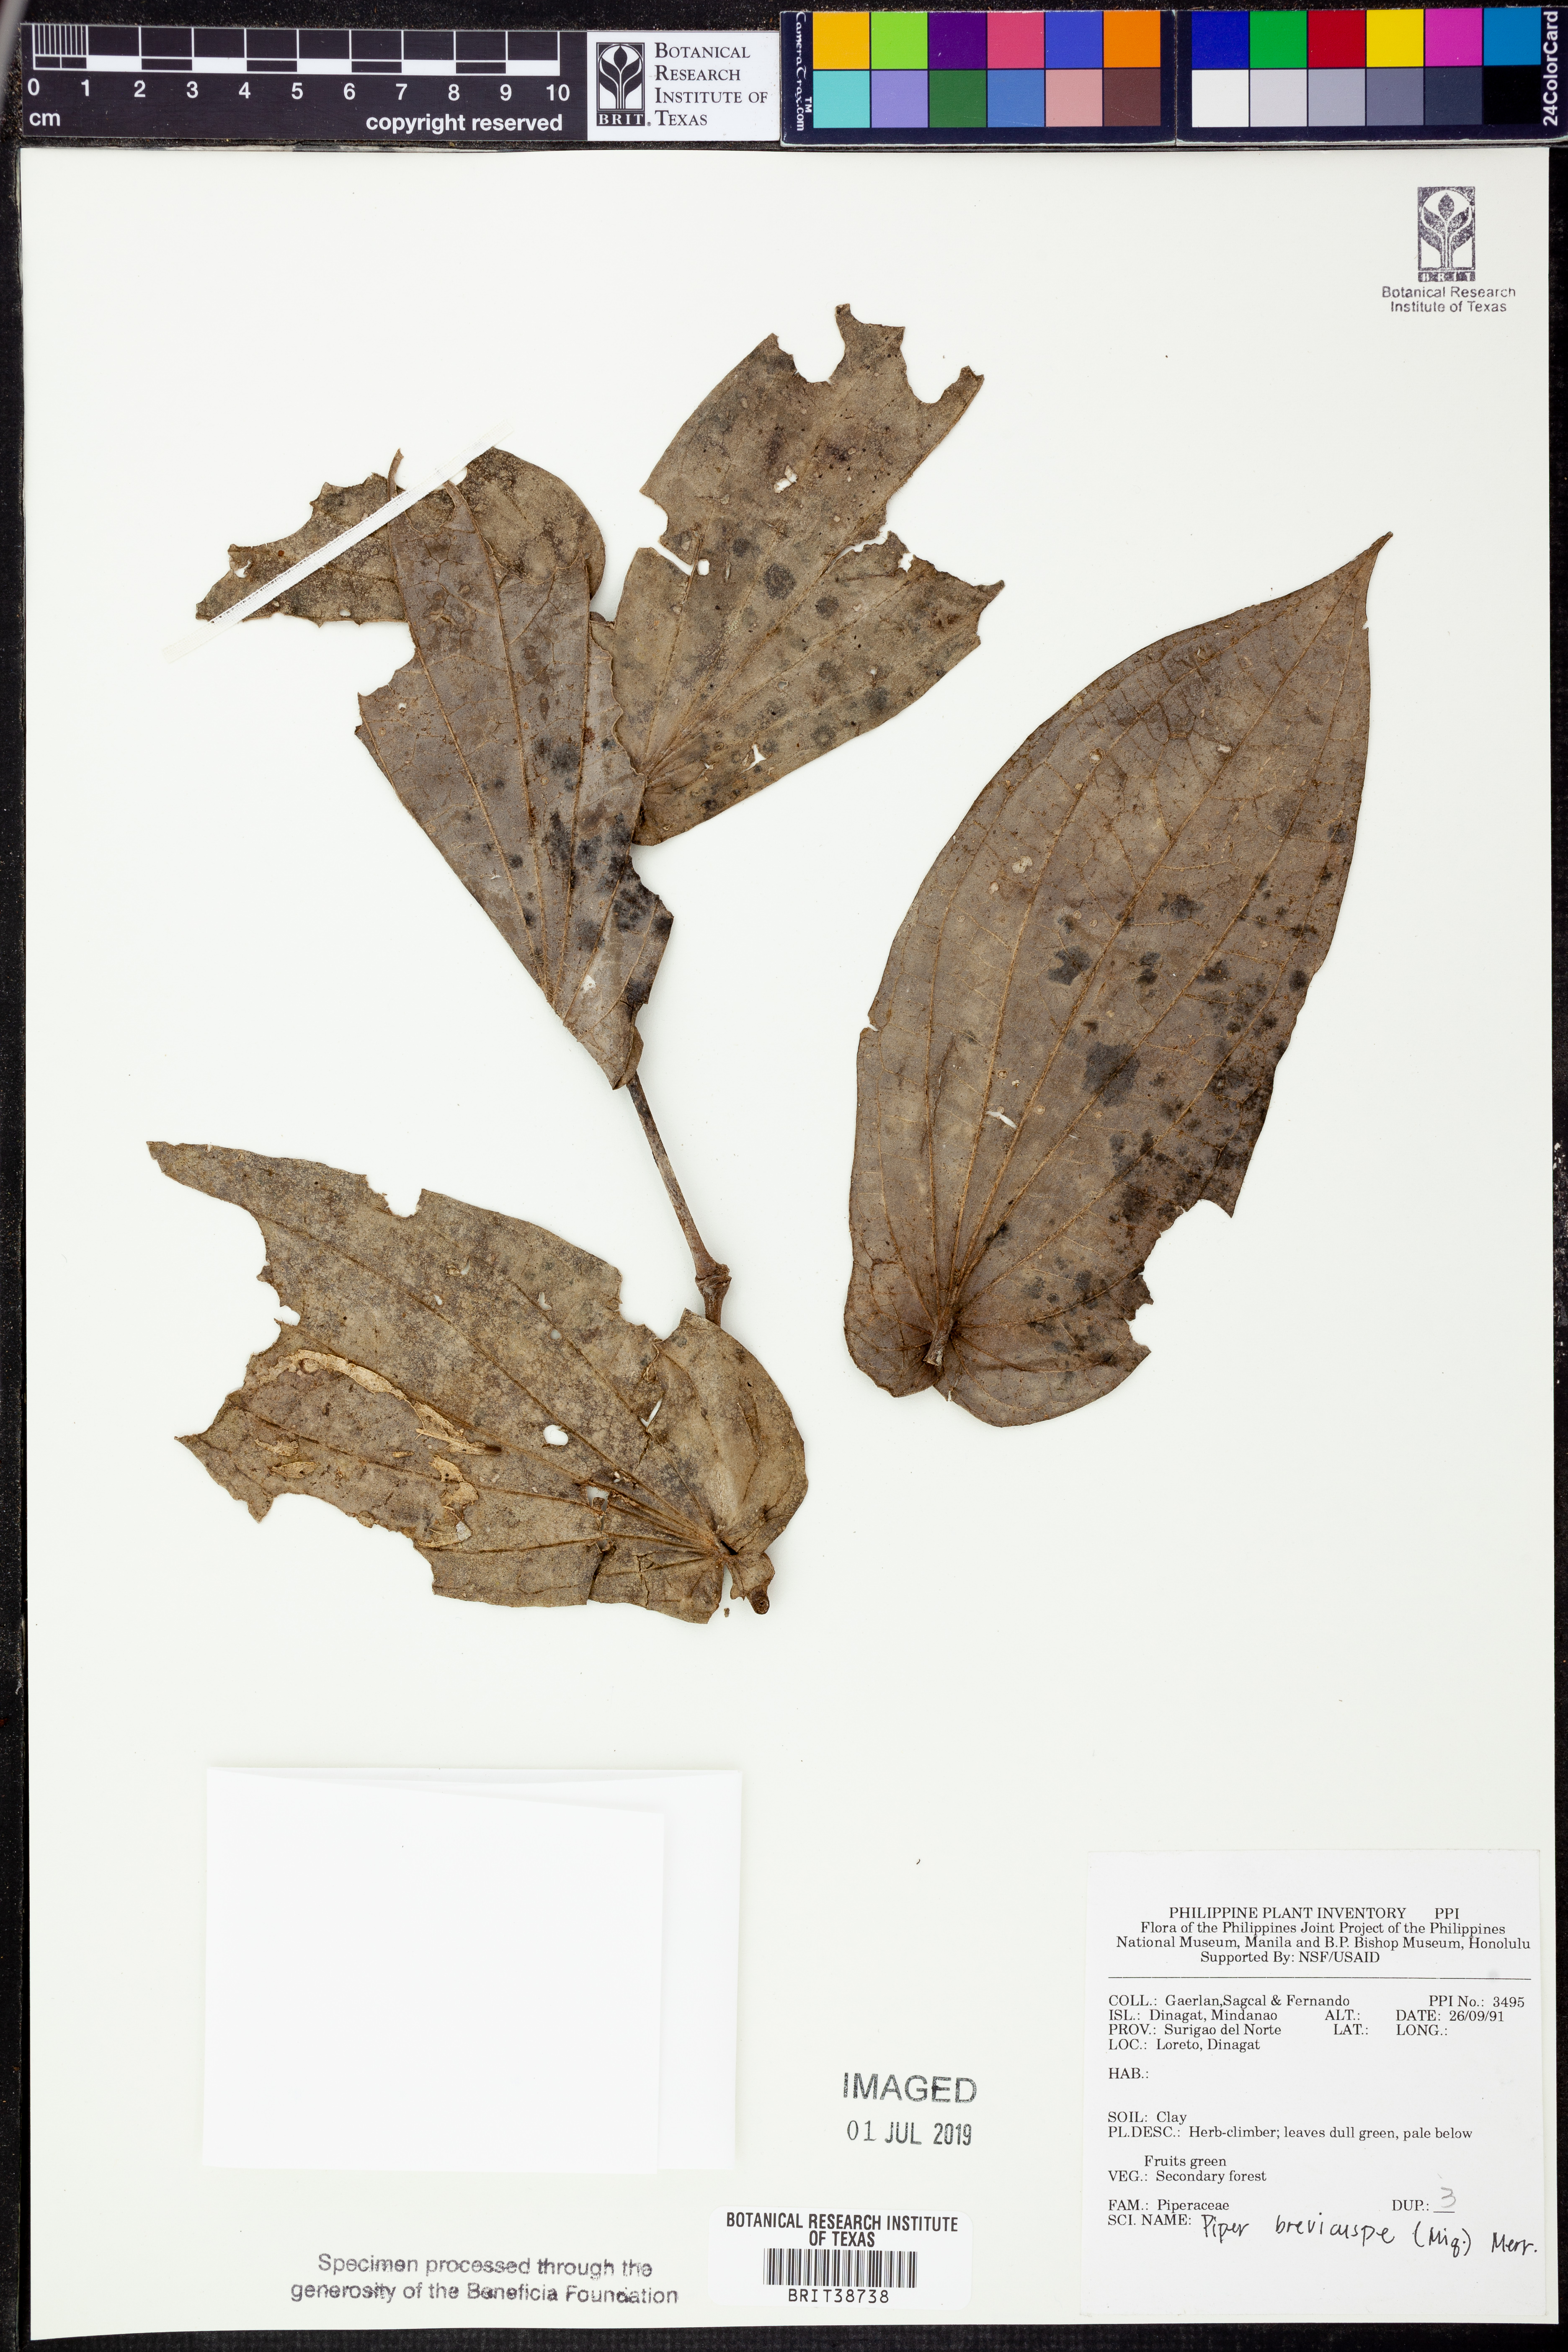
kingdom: Plantae
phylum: Tracheophyta
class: Magnoliopsida
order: Piperales
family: Piperaceae
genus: Piper
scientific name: Piper brevicuspe
